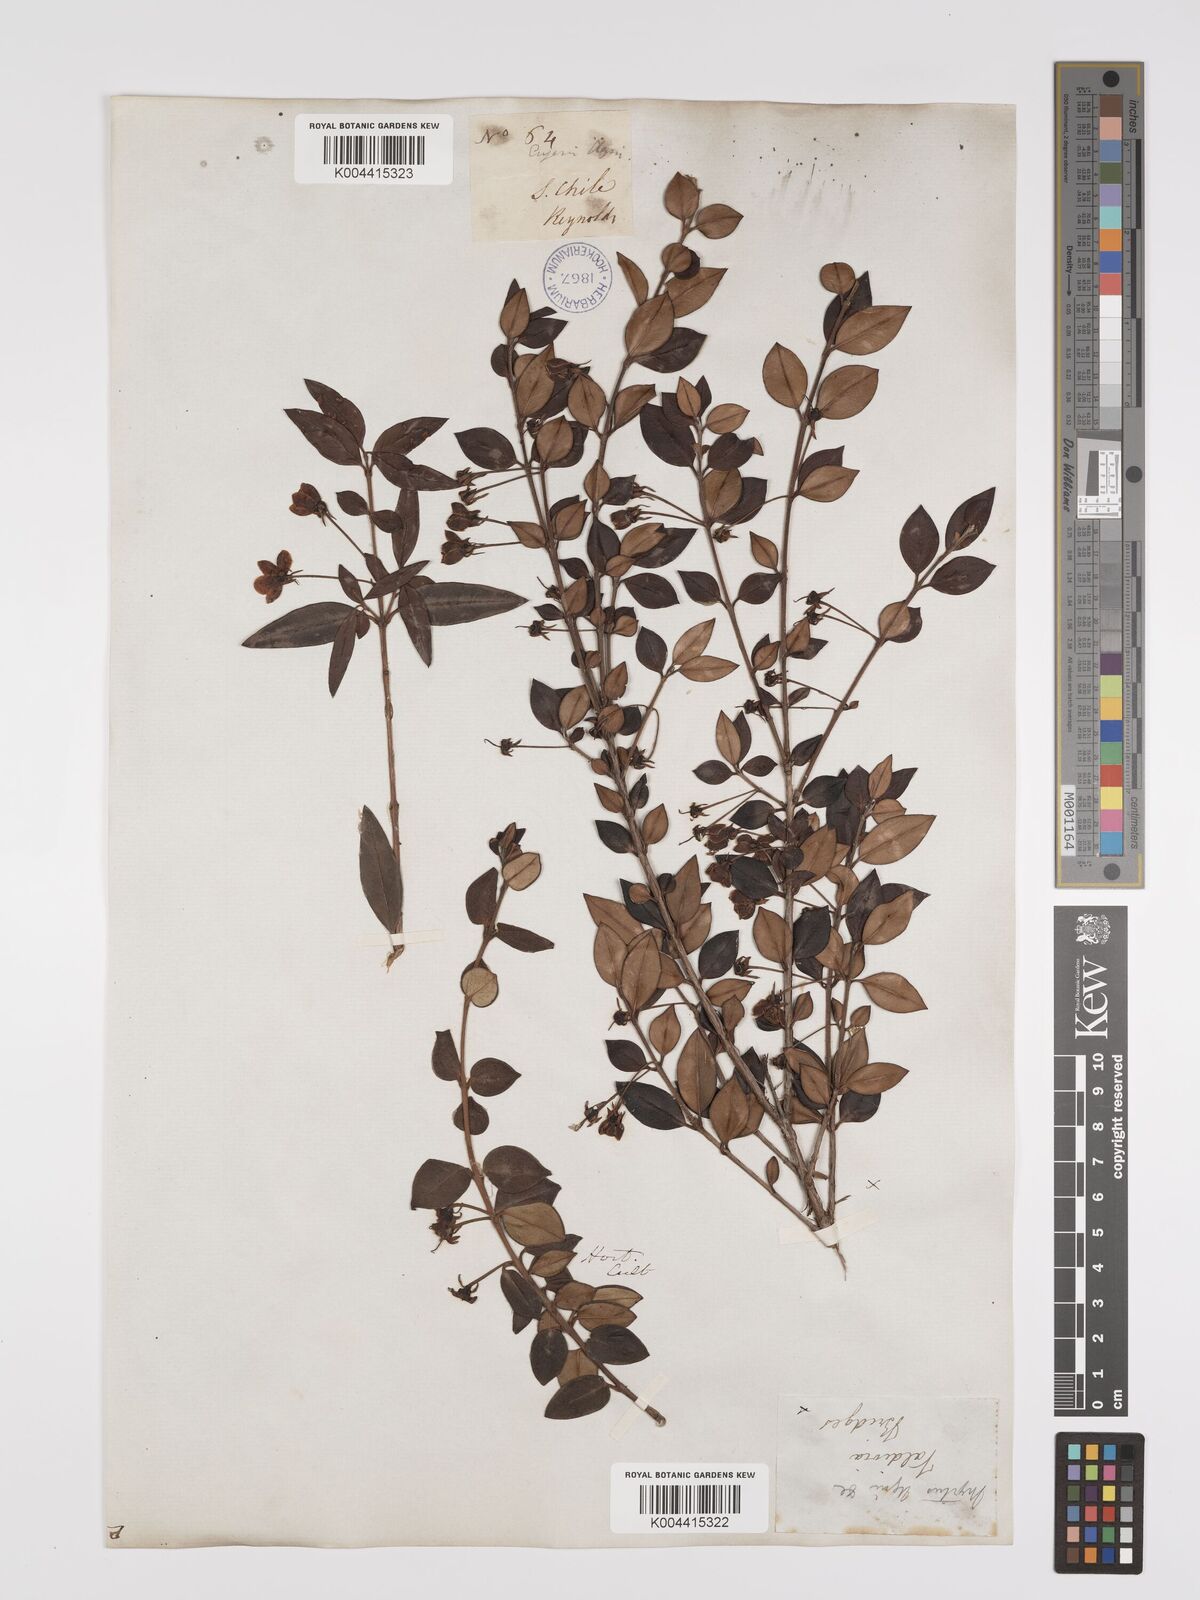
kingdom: Plantae
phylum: Tracheophyta
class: Magnoliopsida
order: Myrtales
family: Myrtaceae
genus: Ugni
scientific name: Ugni molinae
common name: Chilean-guava
